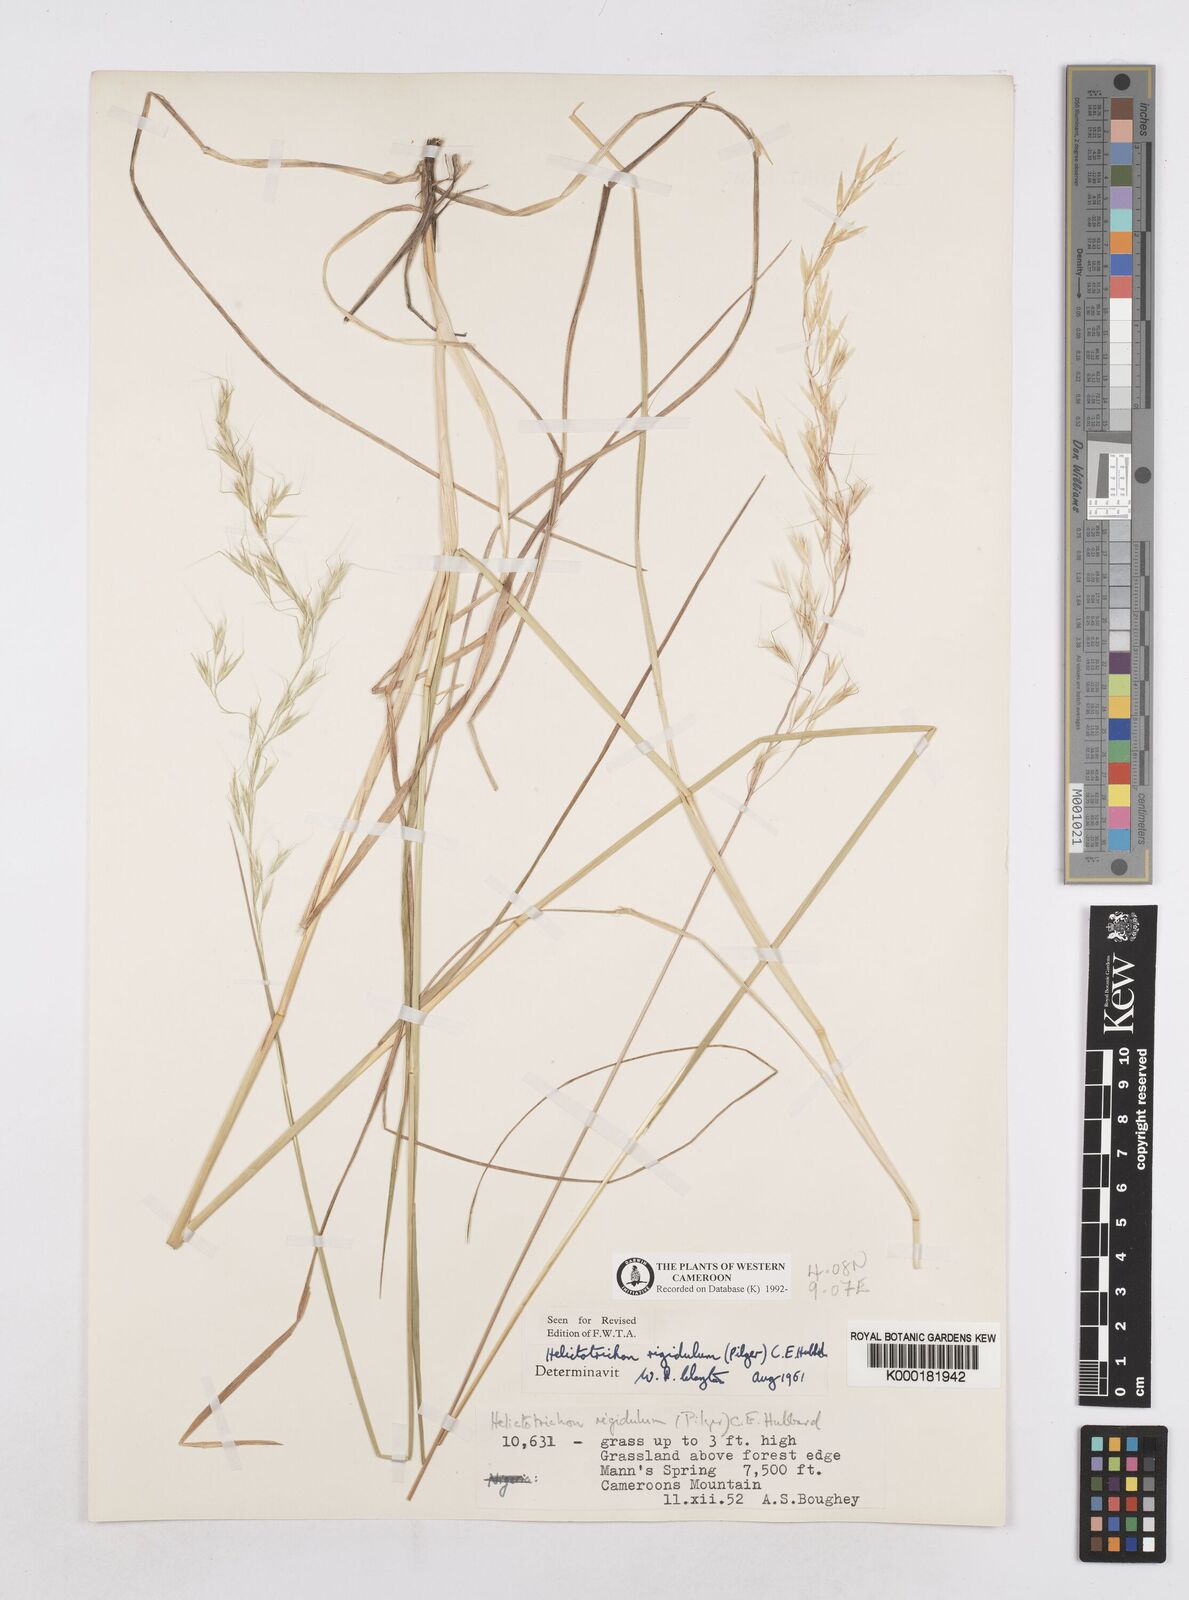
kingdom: Plantae
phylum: Tracheophyta
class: Liliopsida
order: Poales
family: Poaceae
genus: Trisetopsis
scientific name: Trisetopsis elongata
